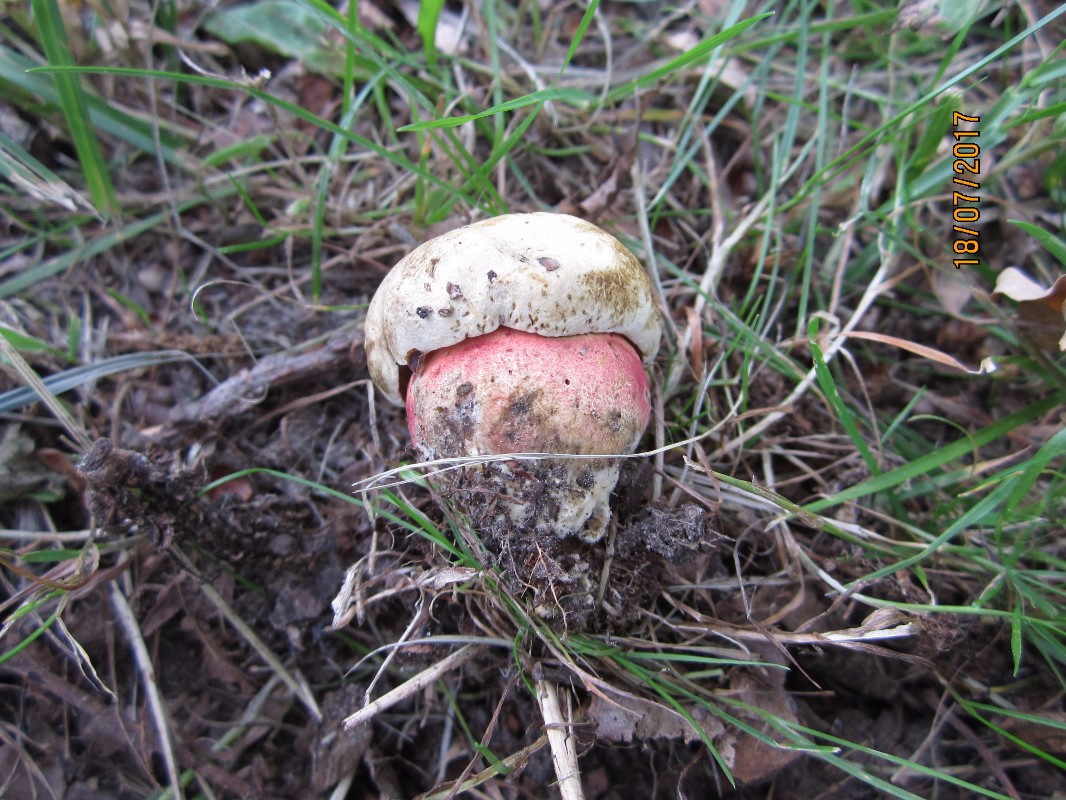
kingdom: Fungi
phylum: Basidiomycota
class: Agaricomycetes
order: Boletales
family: Boletaceae
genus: Rubroboletus
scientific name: Rubroboletus legaliae
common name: djævle-rørhat
